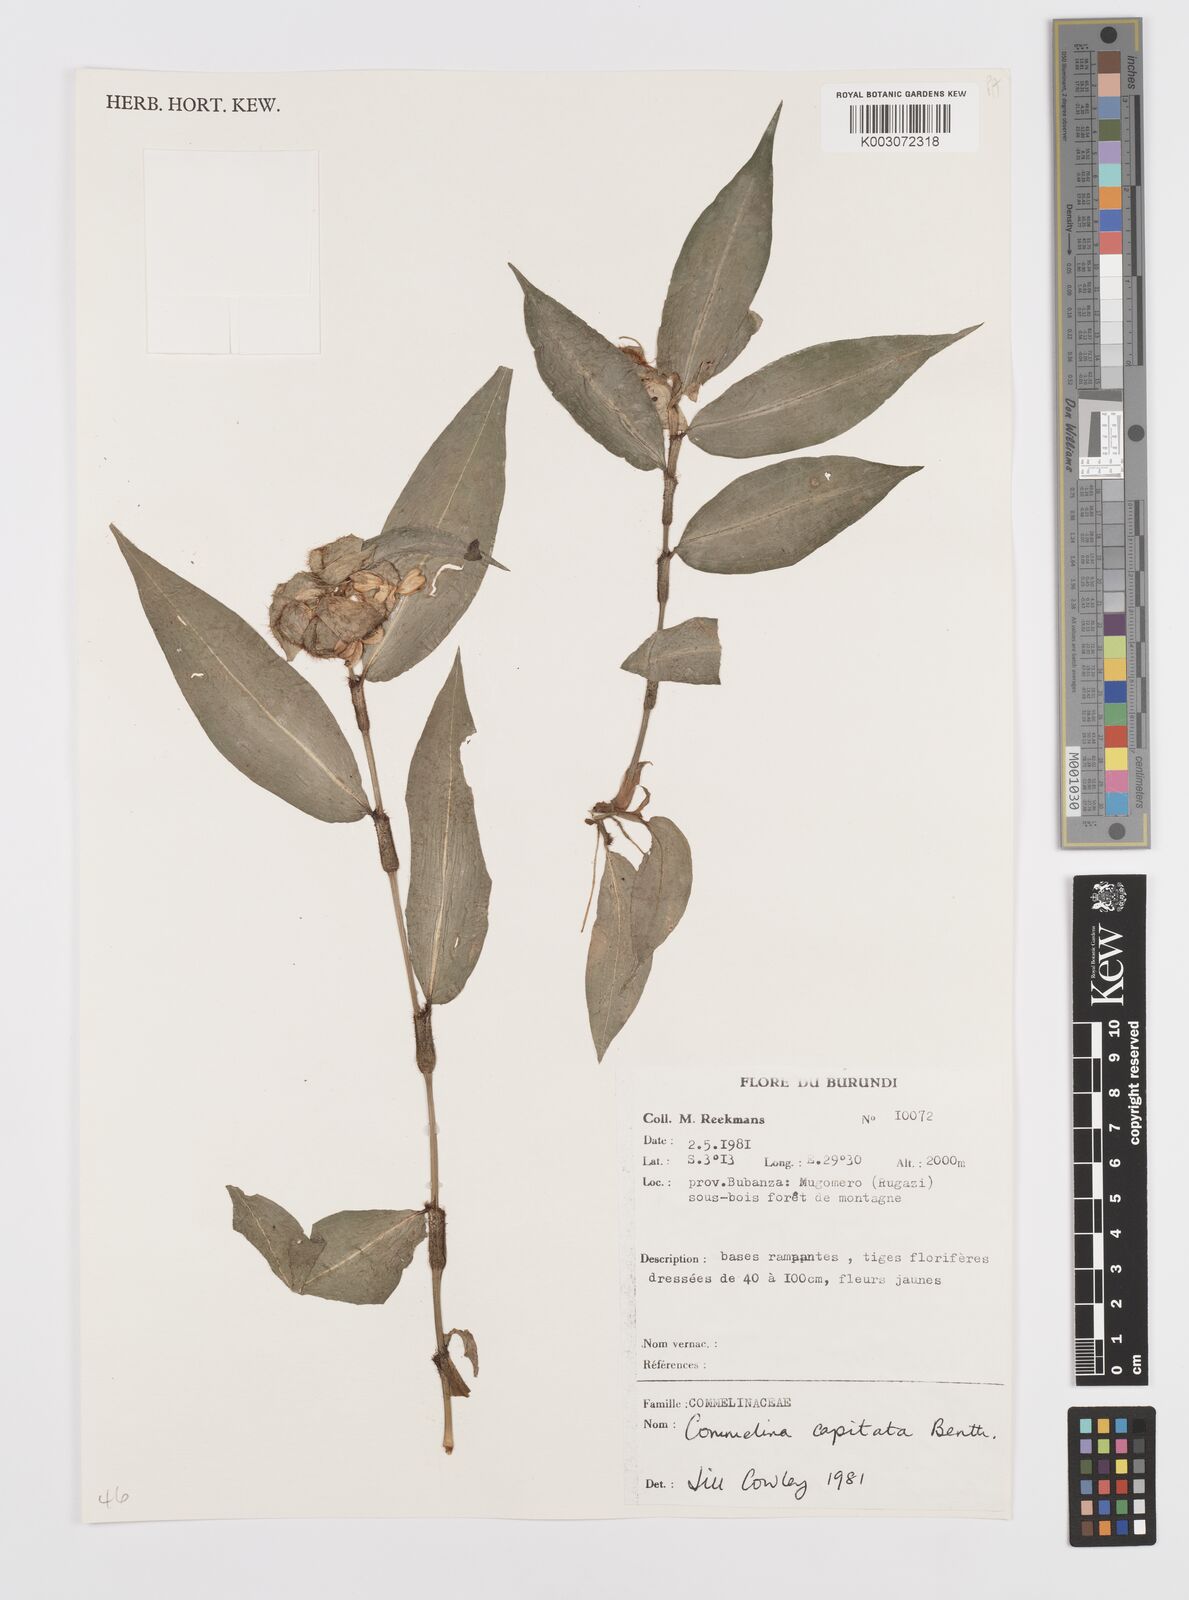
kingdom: Plantae
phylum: Tracheophyta
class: Liliopsida
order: Commelinales
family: Commelinaceae
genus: Commelina
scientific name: Commelina capitata
